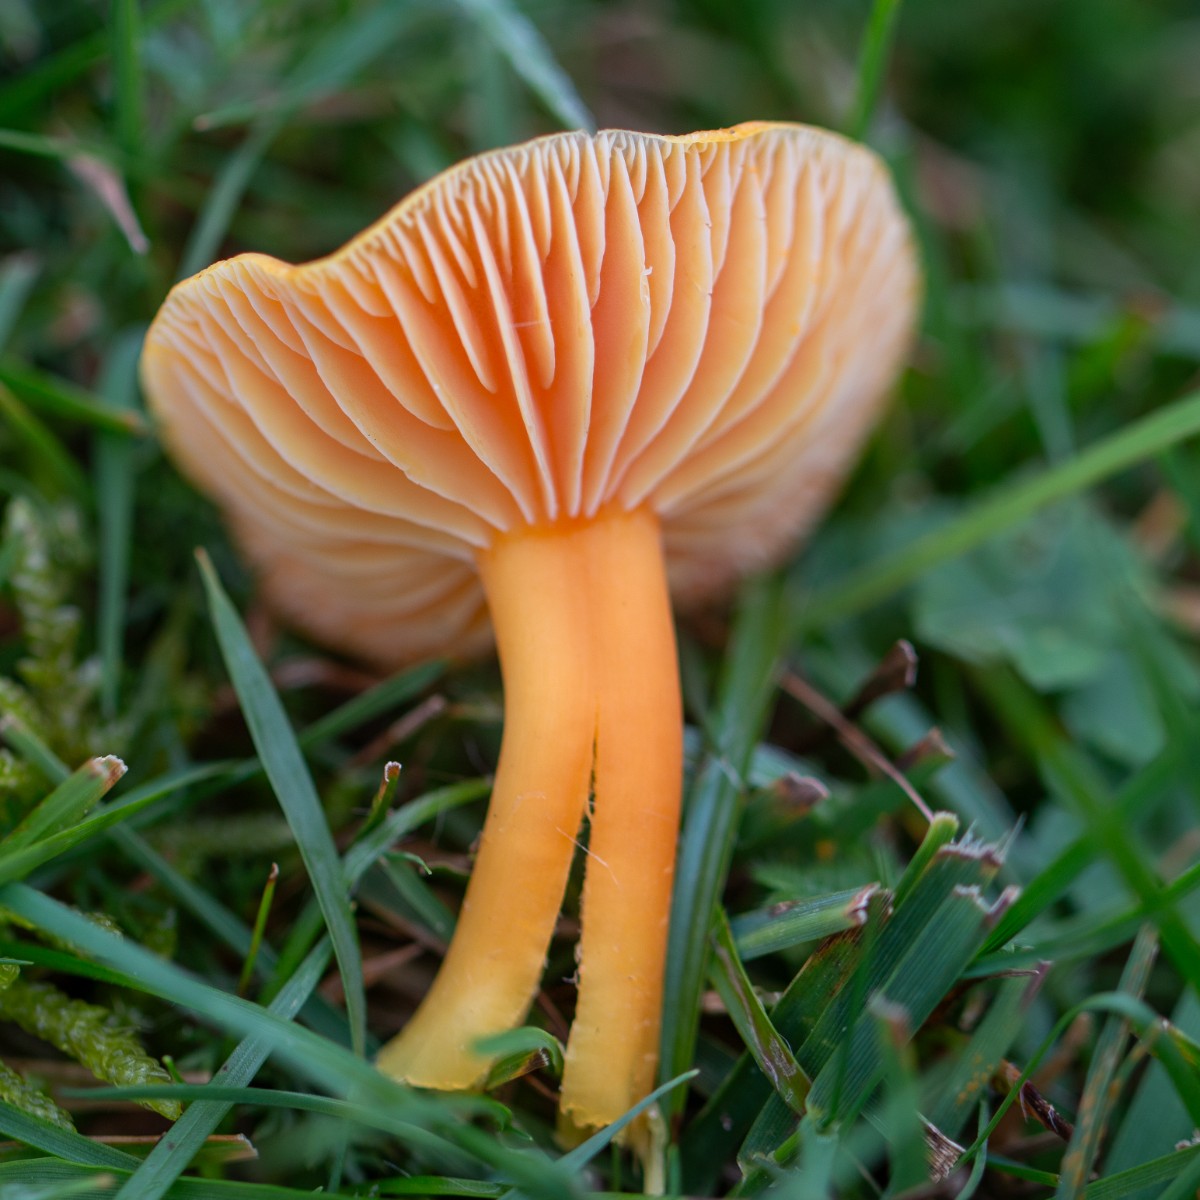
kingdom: Fungi
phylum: Basidiomycota
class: Agaricomycetes
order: Agaricales
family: Hygrophoraceae
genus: Hygrocybe
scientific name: Hygrocybe reidii
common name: honning-vokshat
